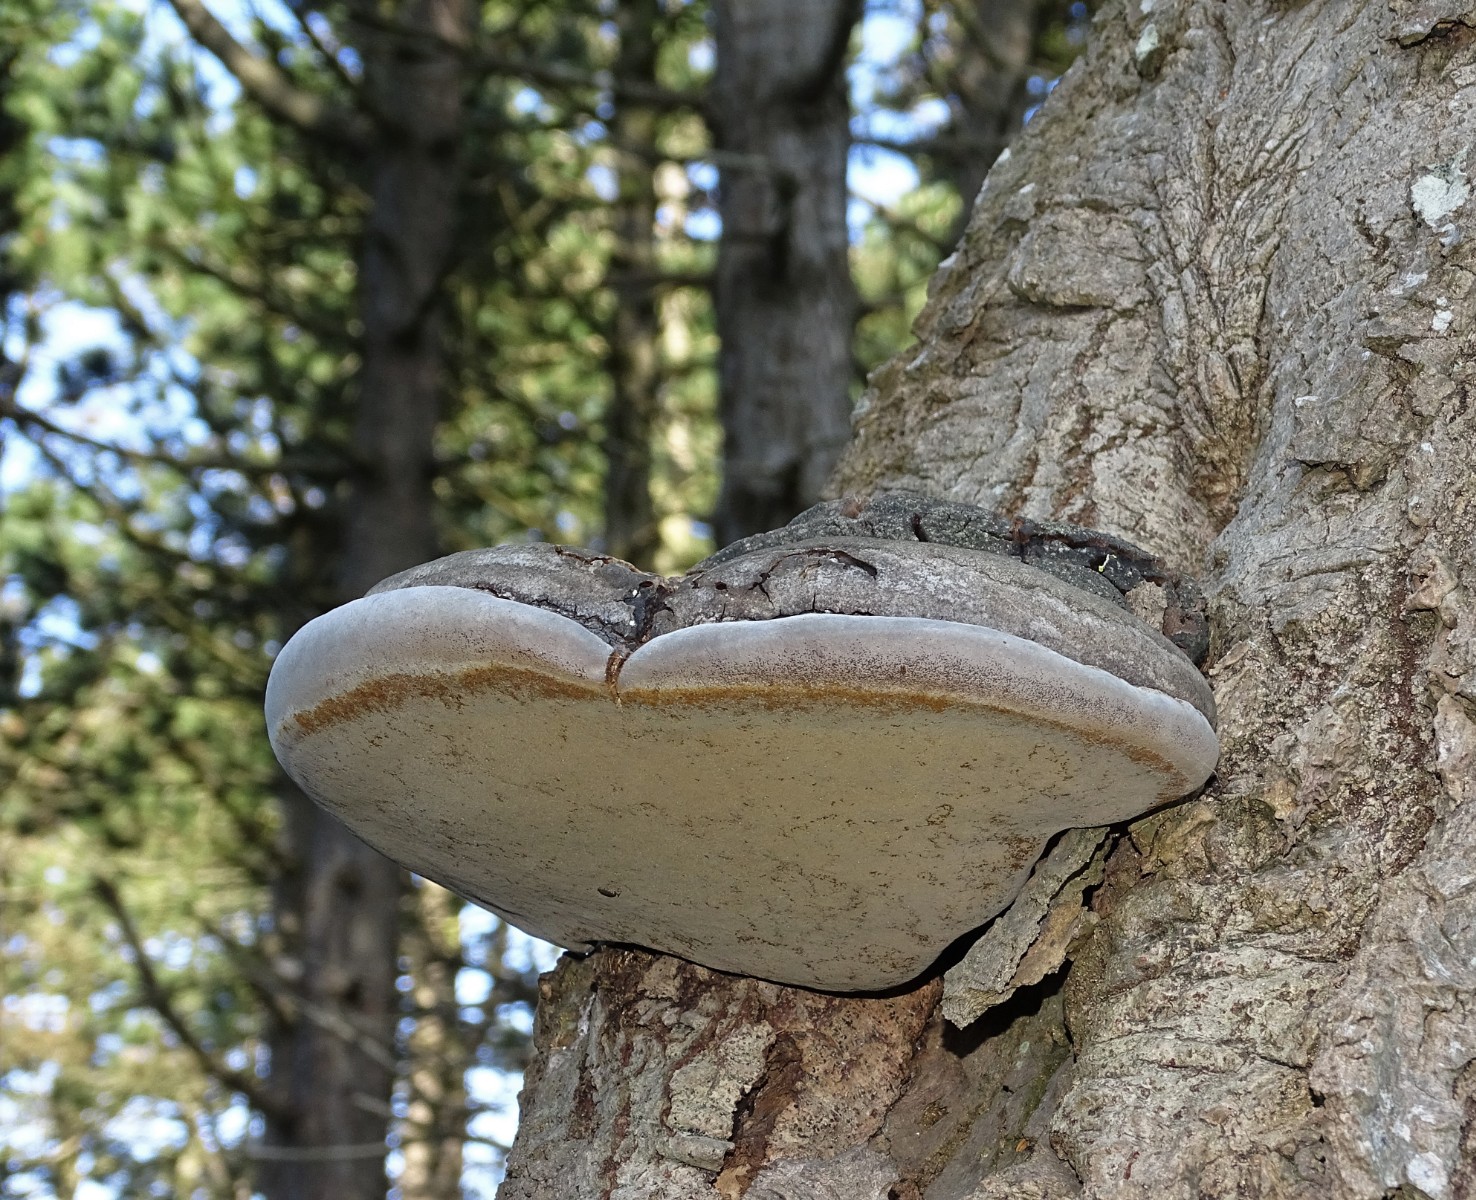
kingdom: Fungi
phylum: Basidiomycota
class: Agaricomycetes
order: Hymenochaetales
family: Hymenochaetaceae
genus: Phellinus
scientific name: Phellinus populicola
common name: poppel-ildporesvamp
